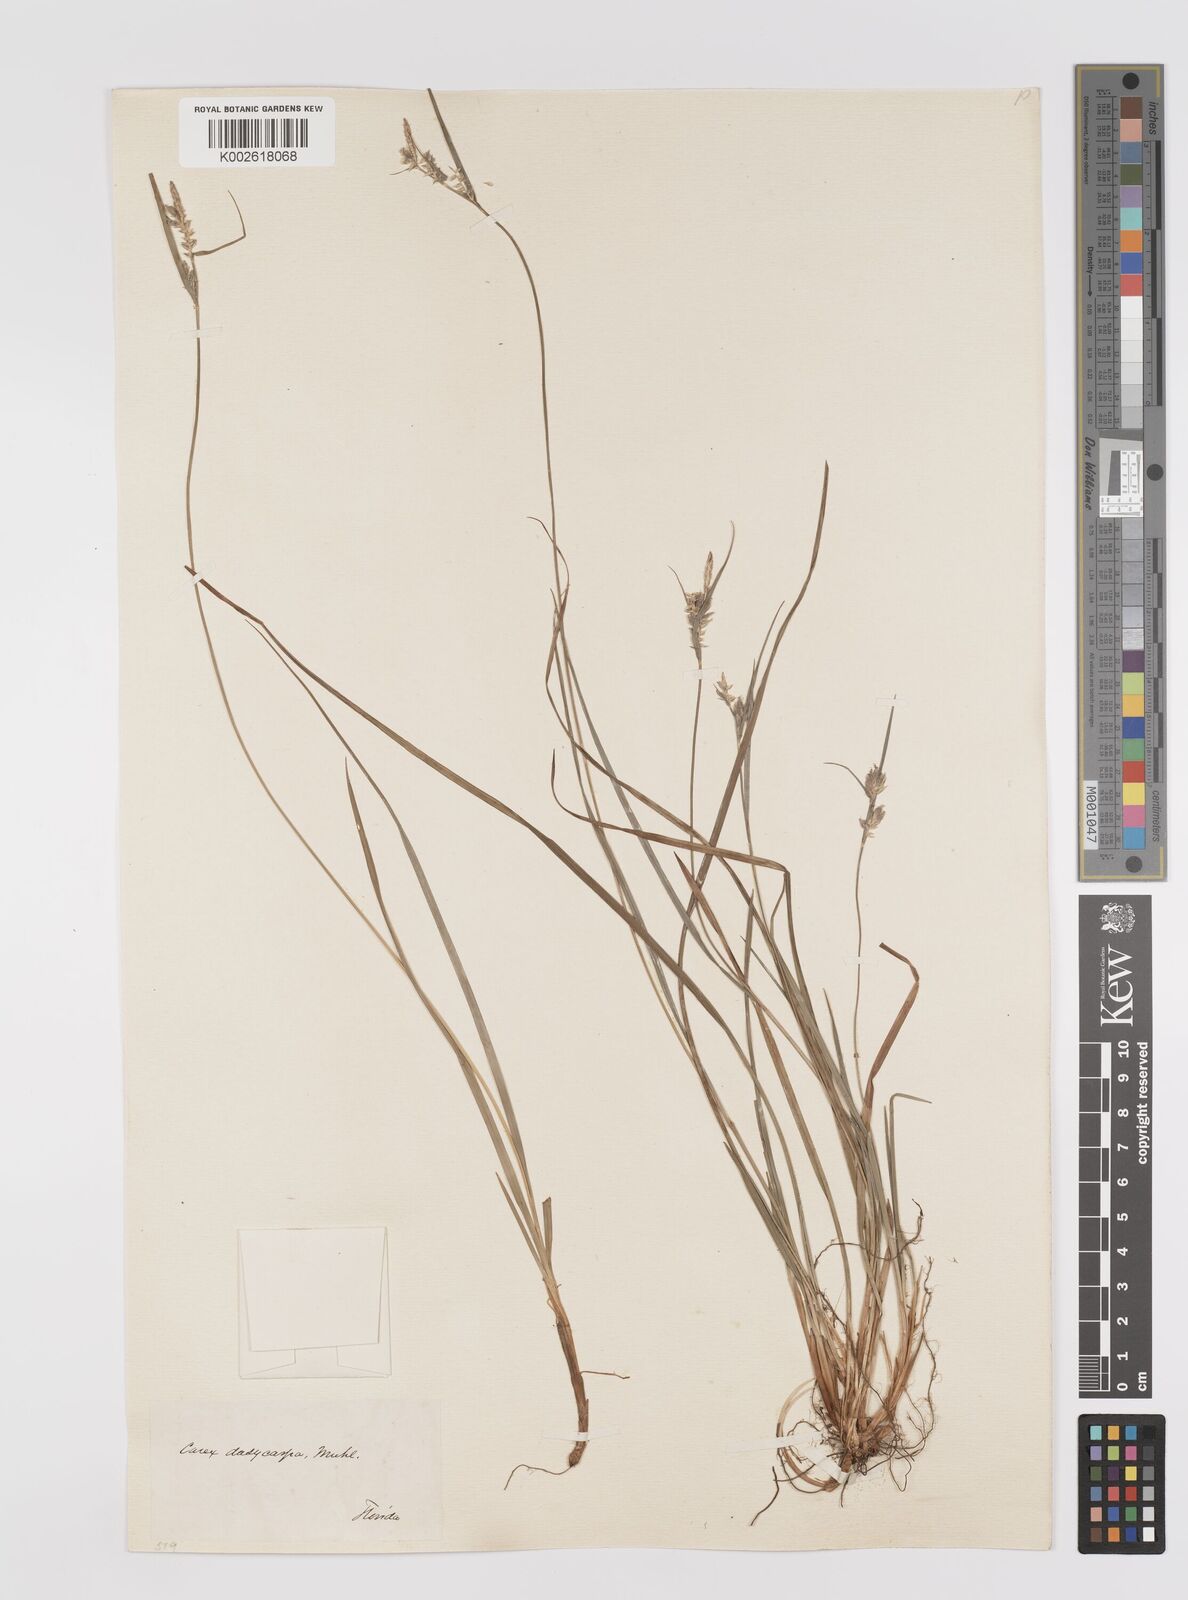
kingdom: Plantae
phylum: Tracheophyta
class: Liliopsida
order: Poales
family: Cyperaceae
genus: Carex
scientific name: Carex dasycarpa
